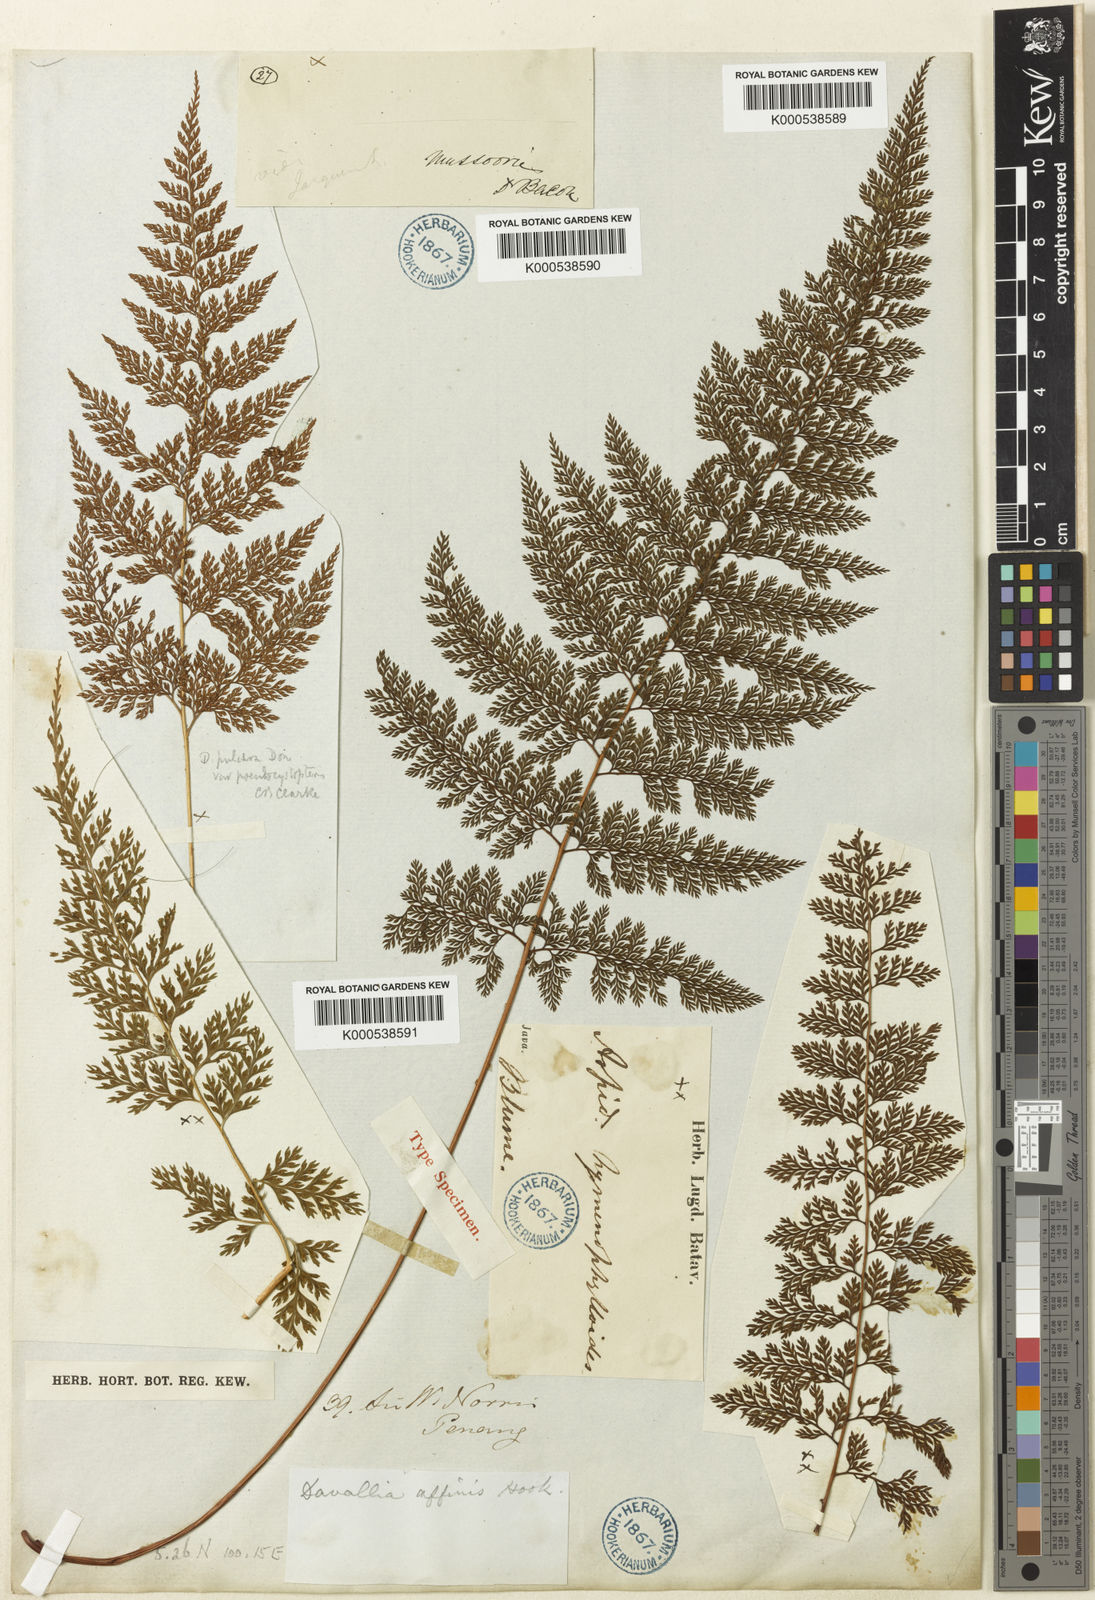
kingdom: Plantae
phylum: Tracheophyta
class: Polypodiopsida
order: Polypodiales
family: Davalliaceae
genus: Davallodes
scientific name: Davallodes hymenophylloides
